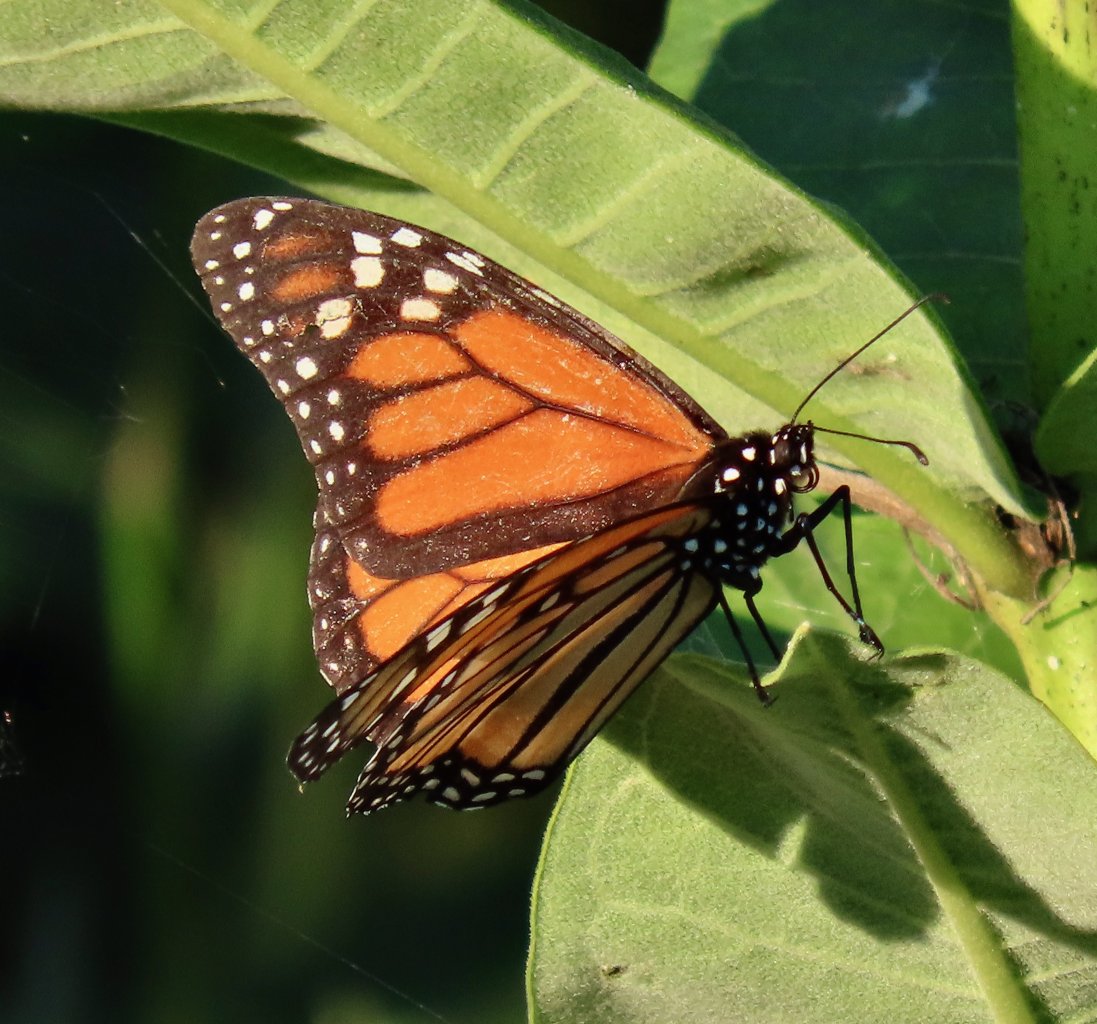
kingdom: Animalia
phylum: Arthropoda
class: Insecta
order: Lepidoptera
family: Nymphalidae
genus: Danaus
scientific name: Danaus plexippus
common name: Monarch
